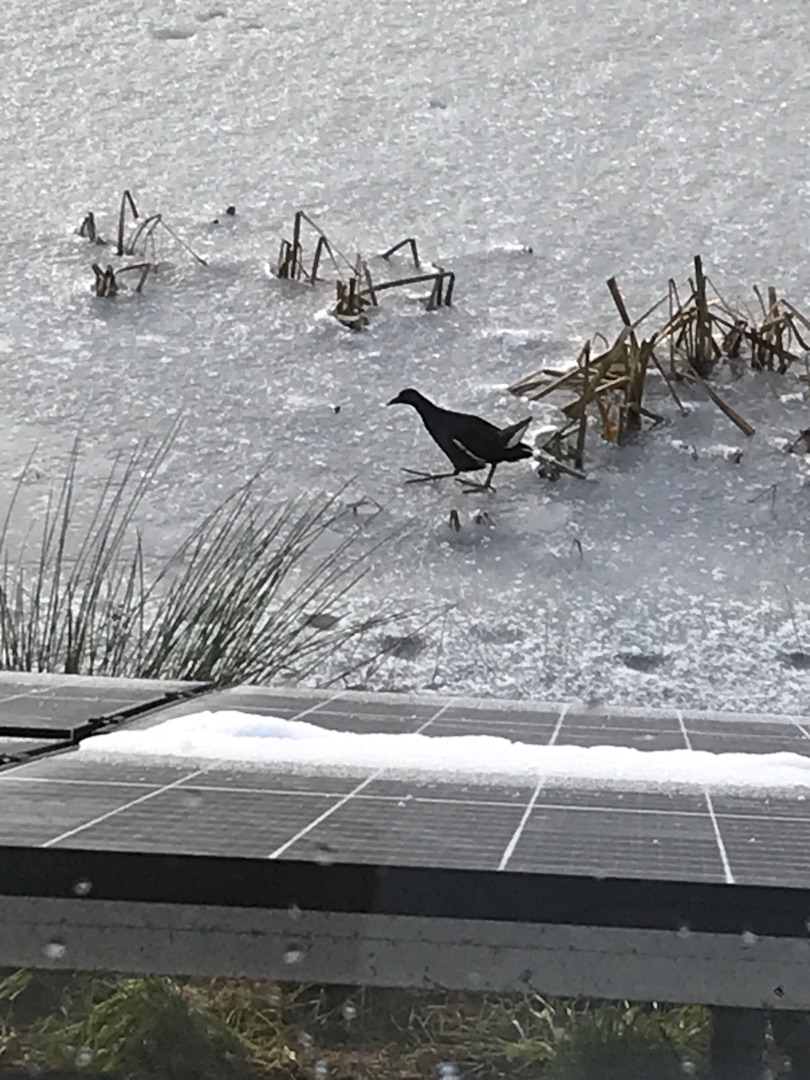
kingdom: Animalia
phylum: Chordata
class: Aves
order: Gruiformes
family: Rallidae
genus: Gallinula
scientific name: Gallinula chloropus
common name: Grønbenet rørhøne
